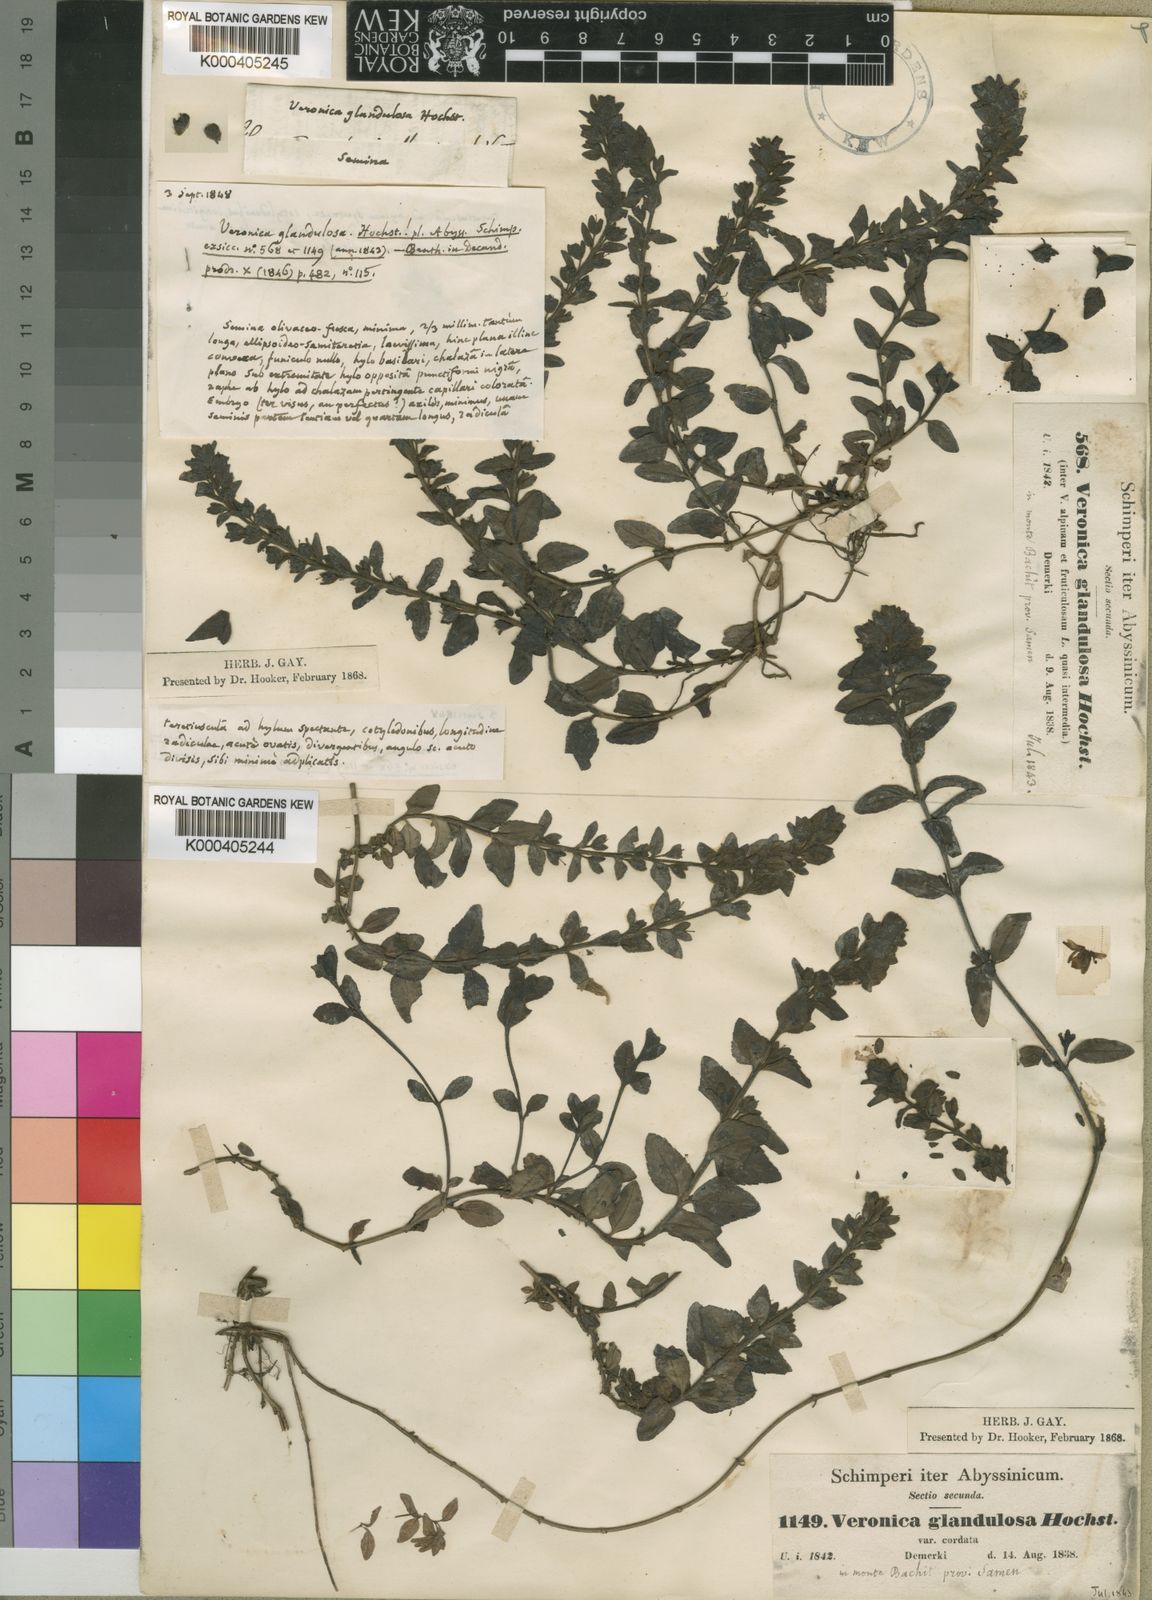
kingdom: Plantae
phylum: Tracheophyta
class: Magnoliopsida
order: Lamiales
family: Plantaginaceae
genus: Veronica
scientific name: Veronica glandulosa
